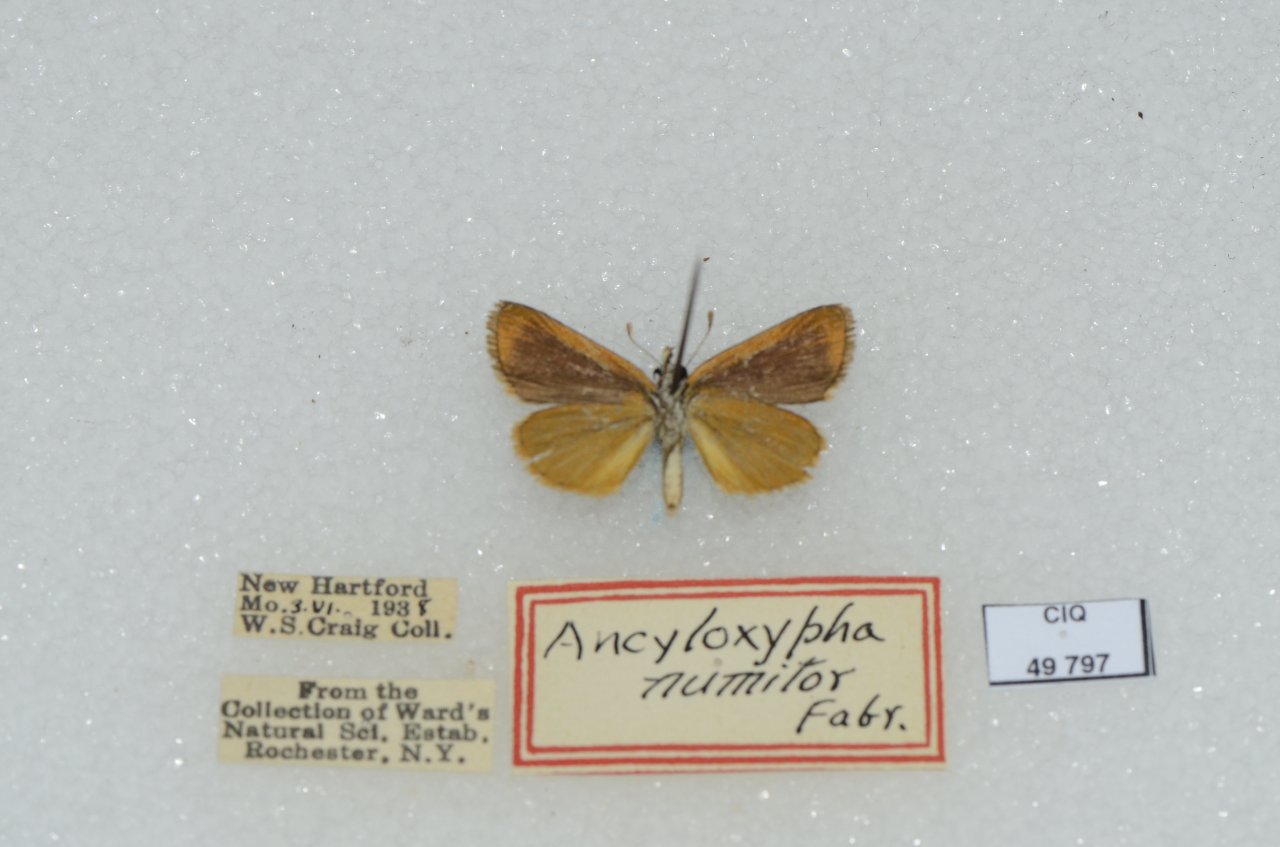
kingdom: Animalia
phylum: Arthropoda
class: Insecta
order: Lepidoptera
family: Hesperiidae
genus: Ancyloxypha
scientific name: Ancyloxypha numitor
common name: Least Skipper
